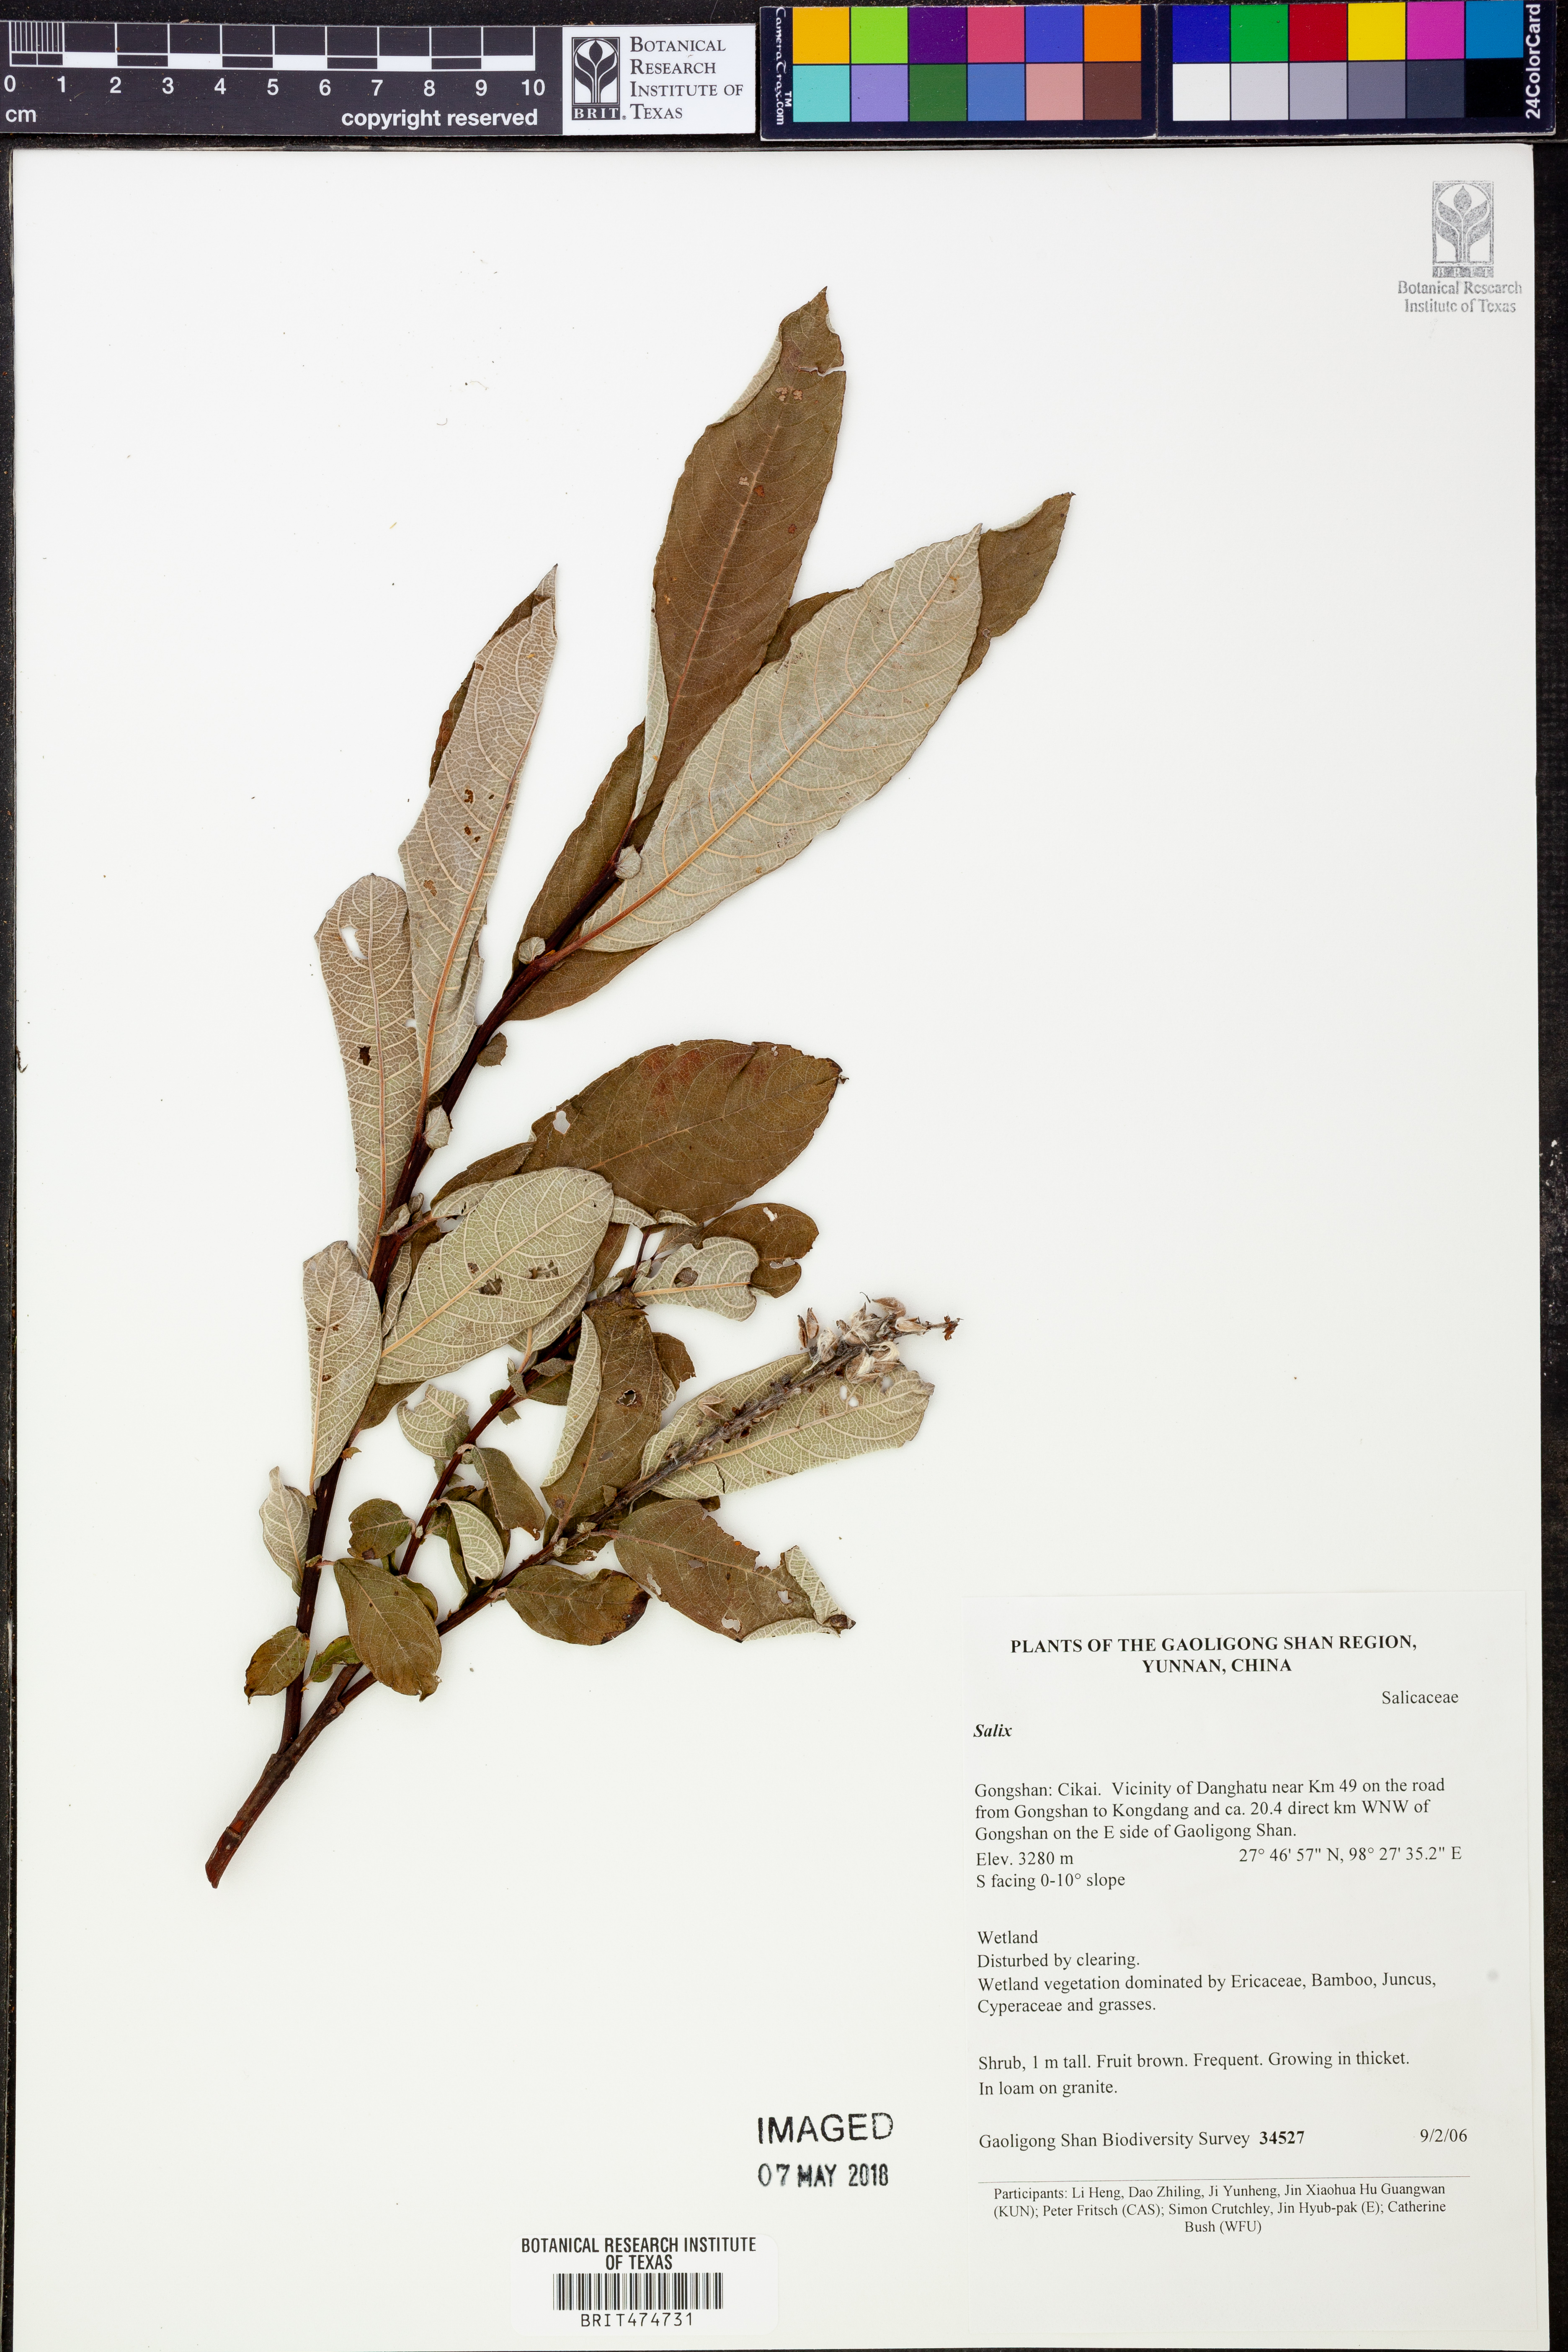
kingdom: Plantae
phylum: Tracheophyta
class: Magnoliopsida
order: Malpighiales
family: Salicaceae
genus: Salix
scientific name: Salix
